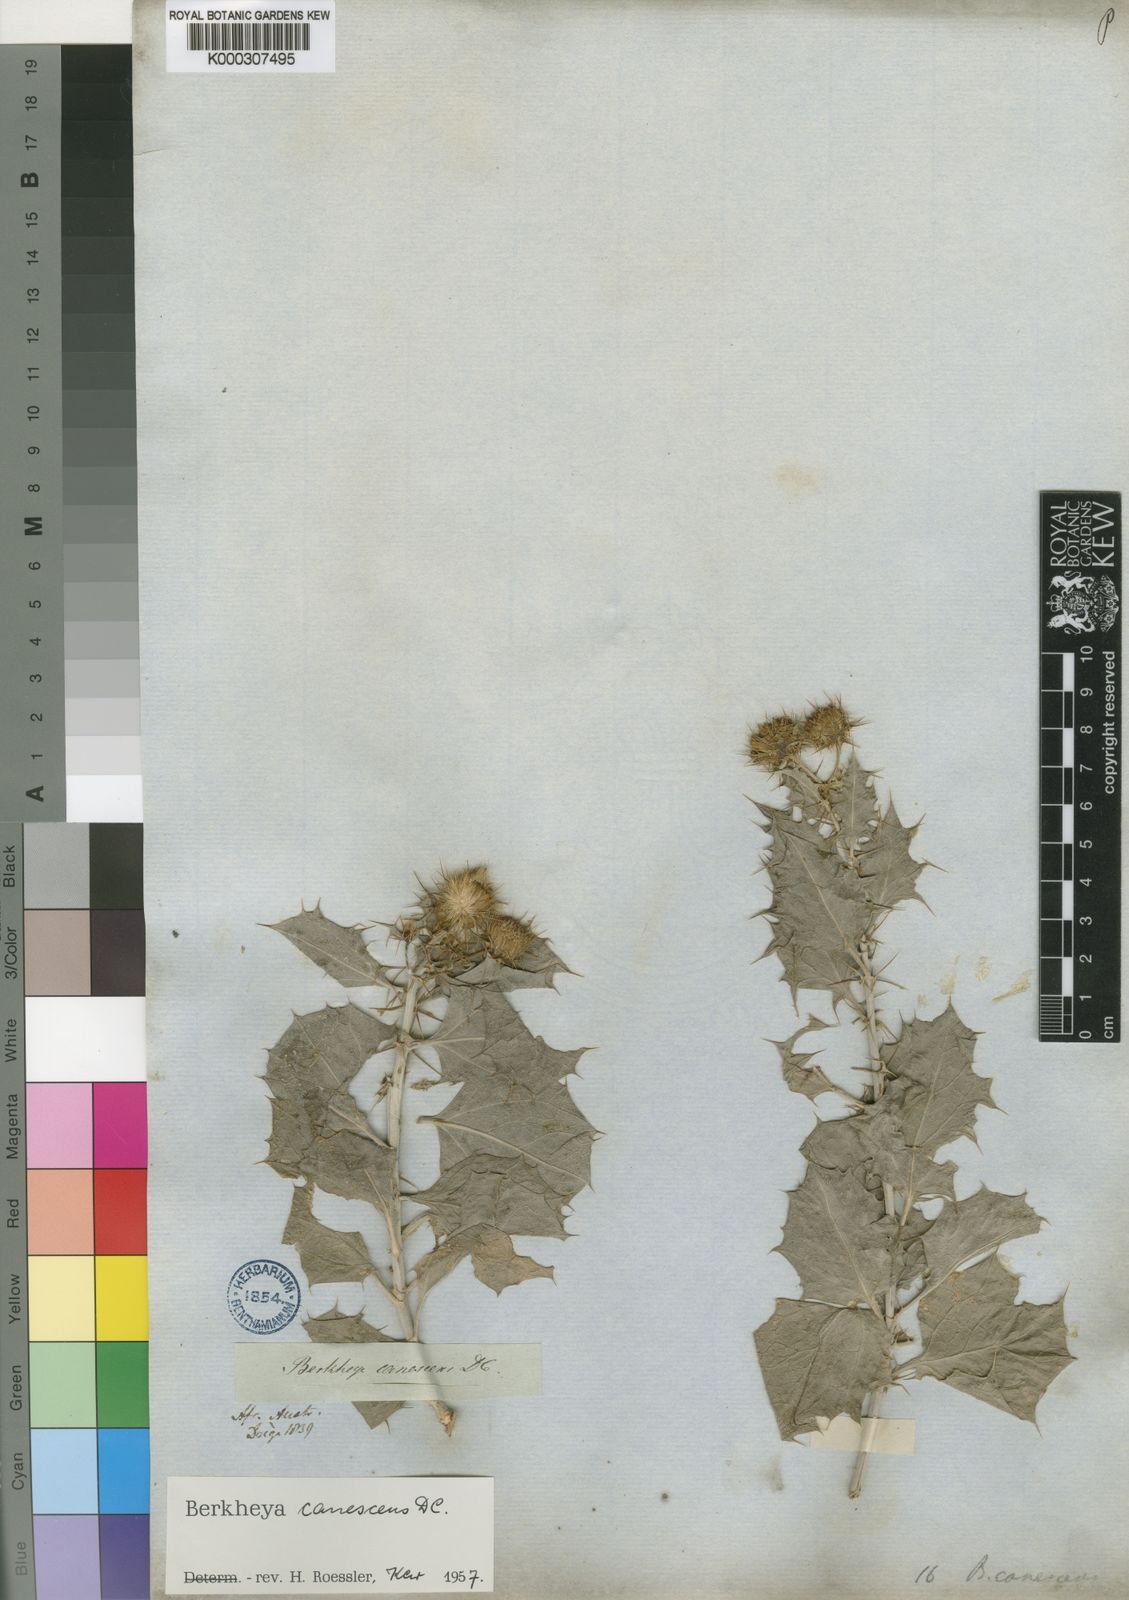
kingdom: Plantae
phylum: Tracheophyta
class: Magnoliopsida
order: Asterales
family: Asteraceae
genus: Berkheya
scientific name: Berkheya canescens
